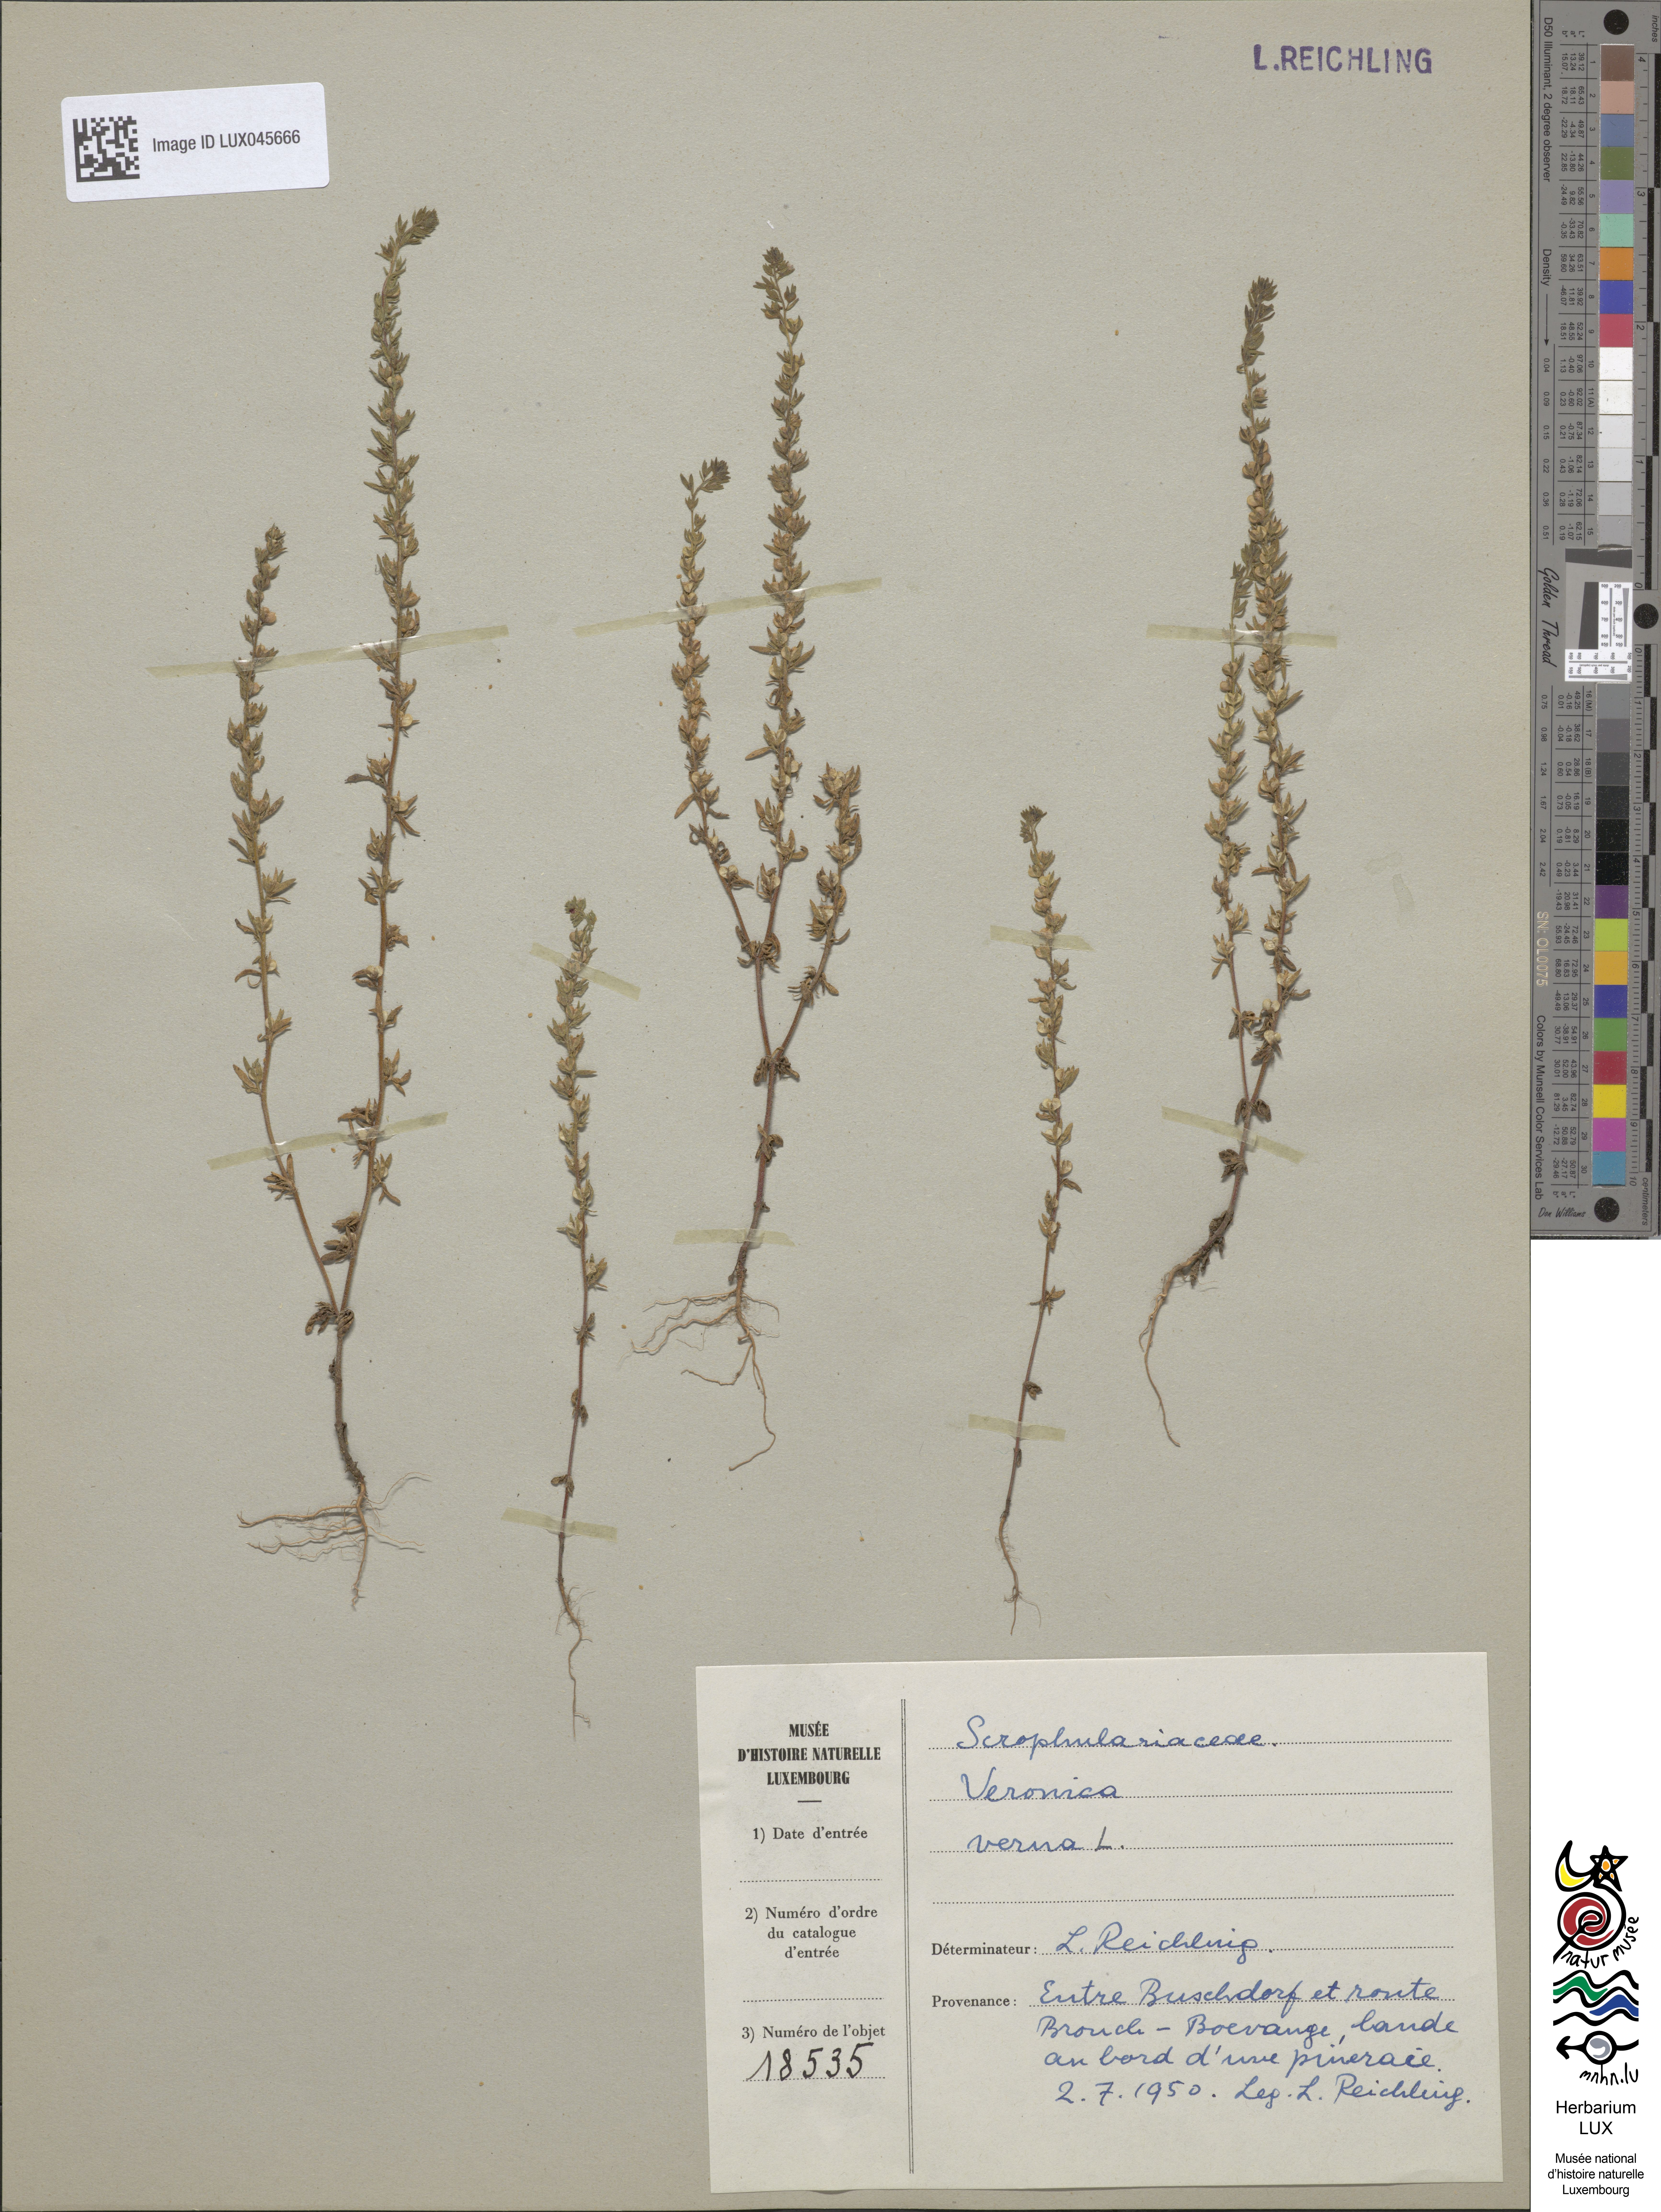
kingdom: Plantae
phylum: Tracheophyta
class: Magnoliopsida
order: Lamiales
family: Plantaginaceae
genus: Veronica
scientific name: Veronica verna
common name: Spring speedwell
